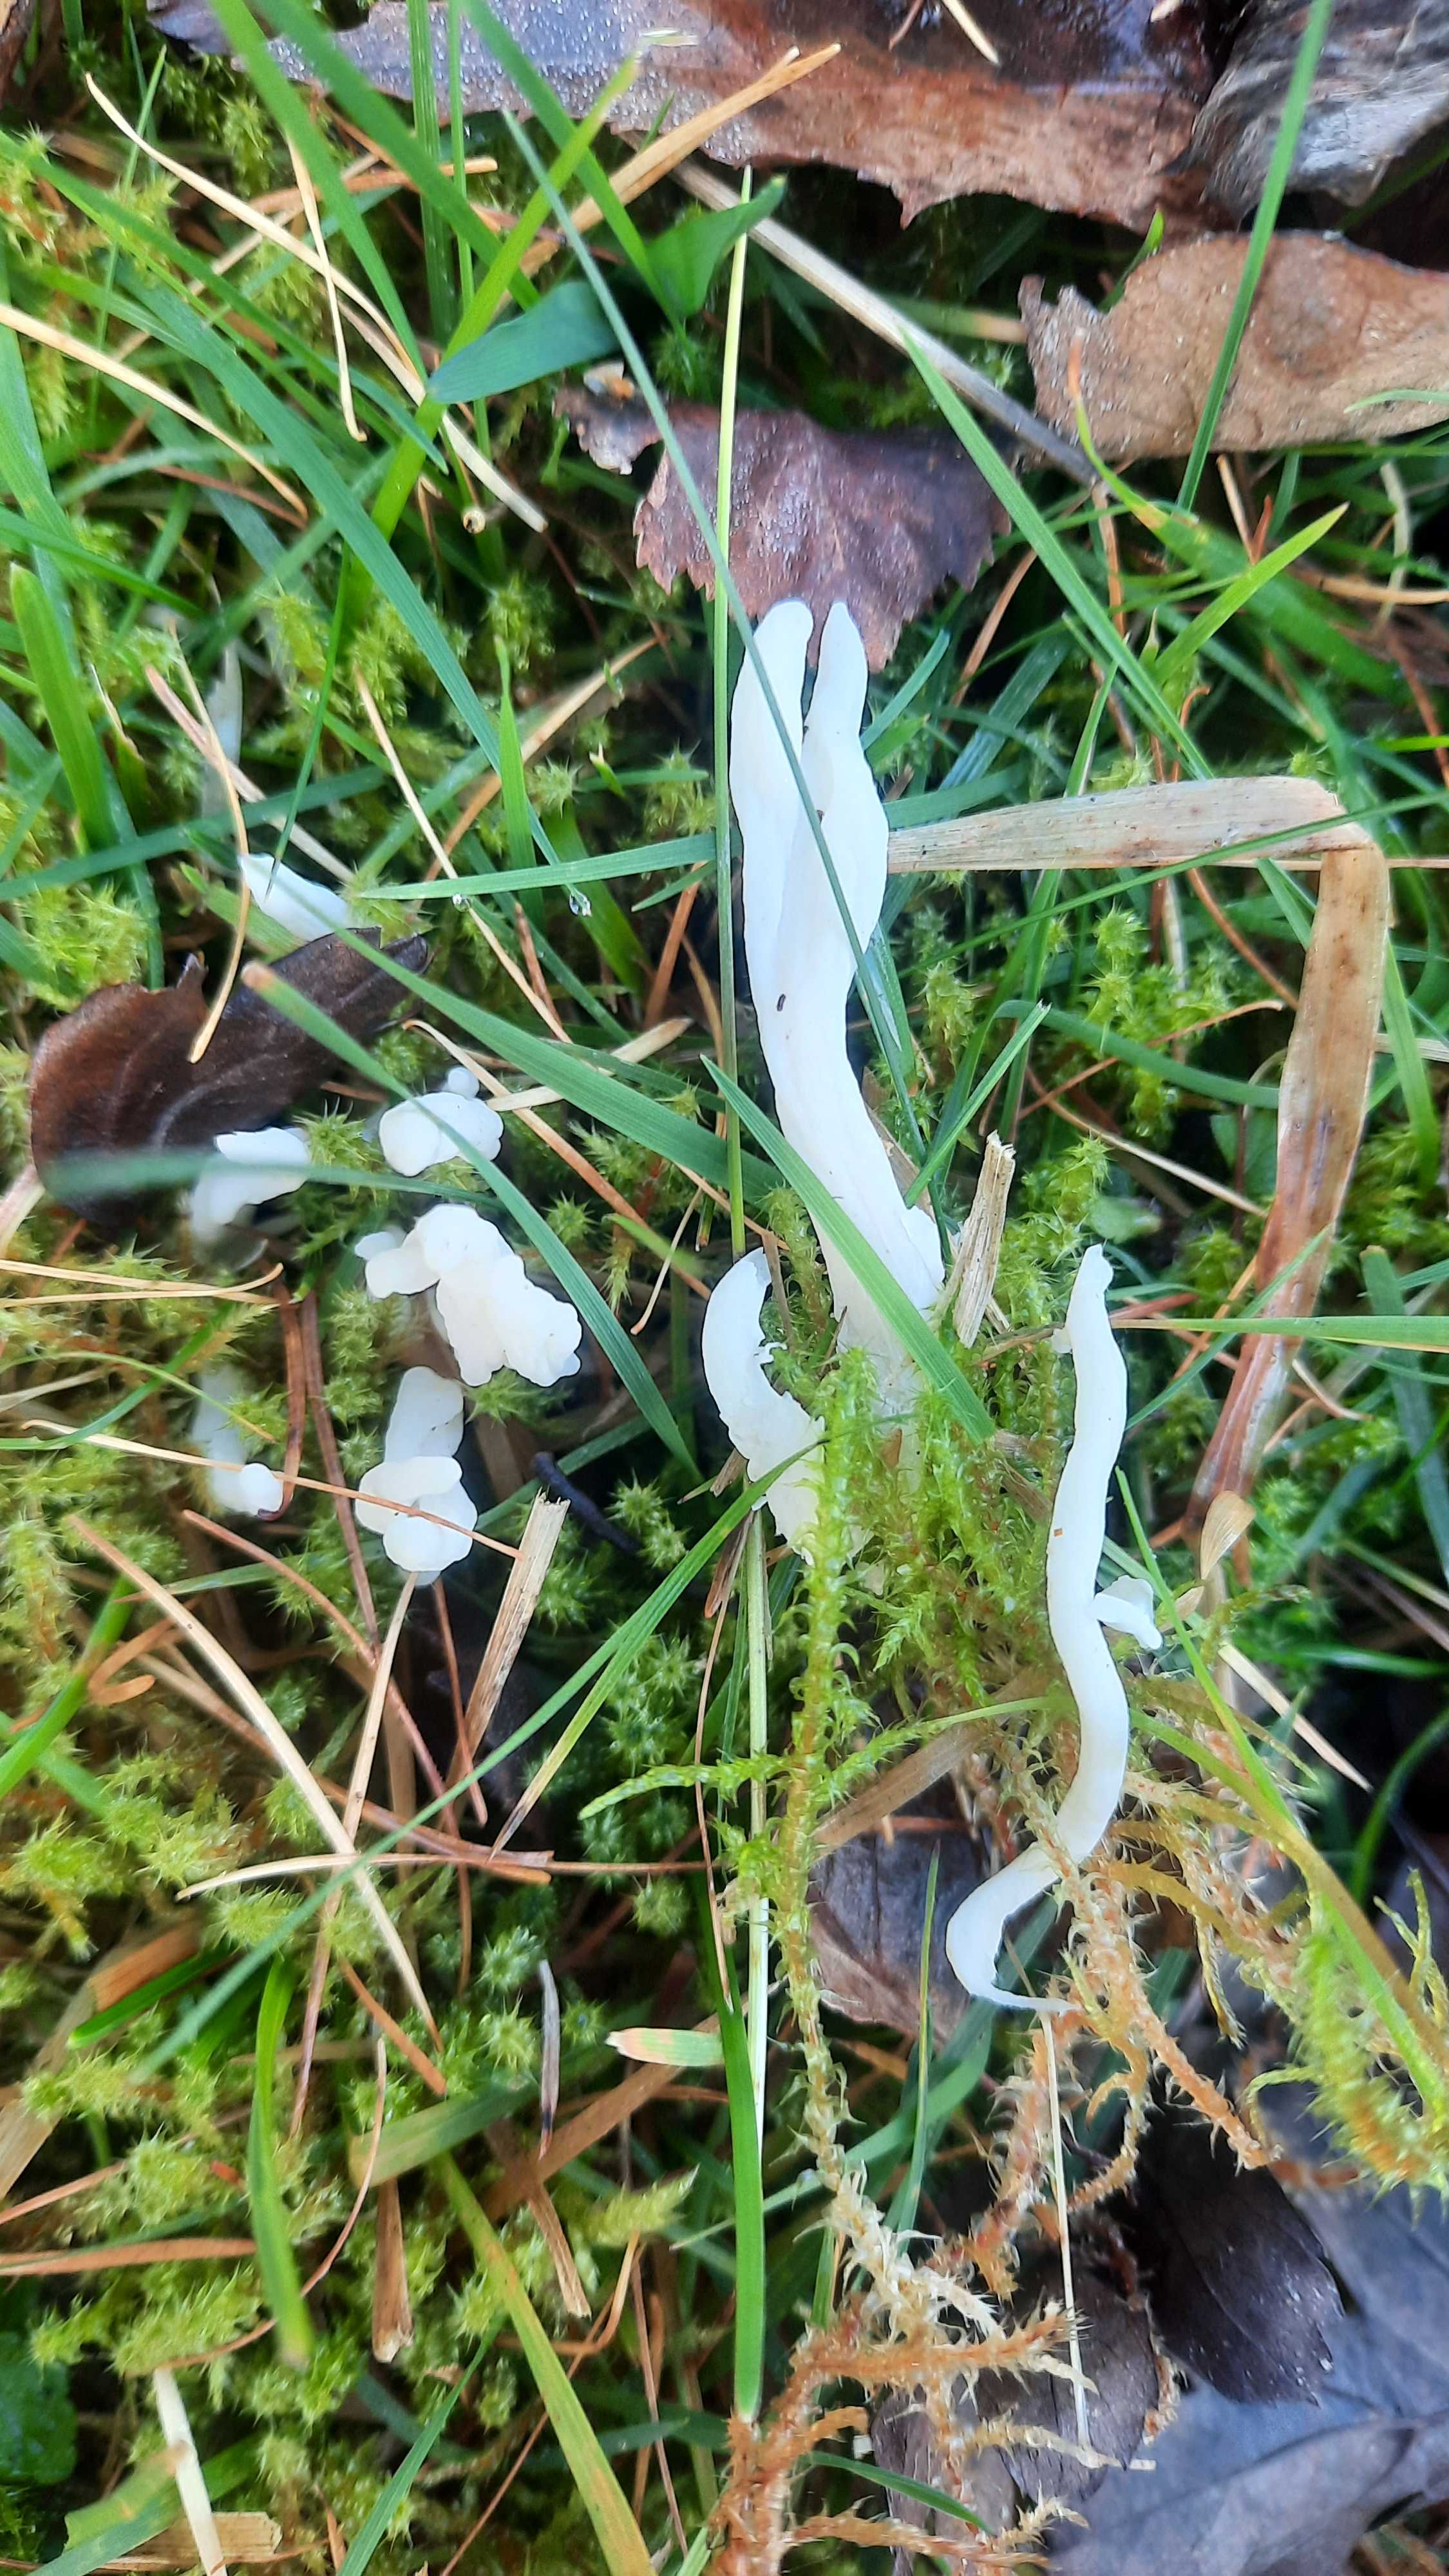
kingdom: Fungi
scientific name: Fungi
